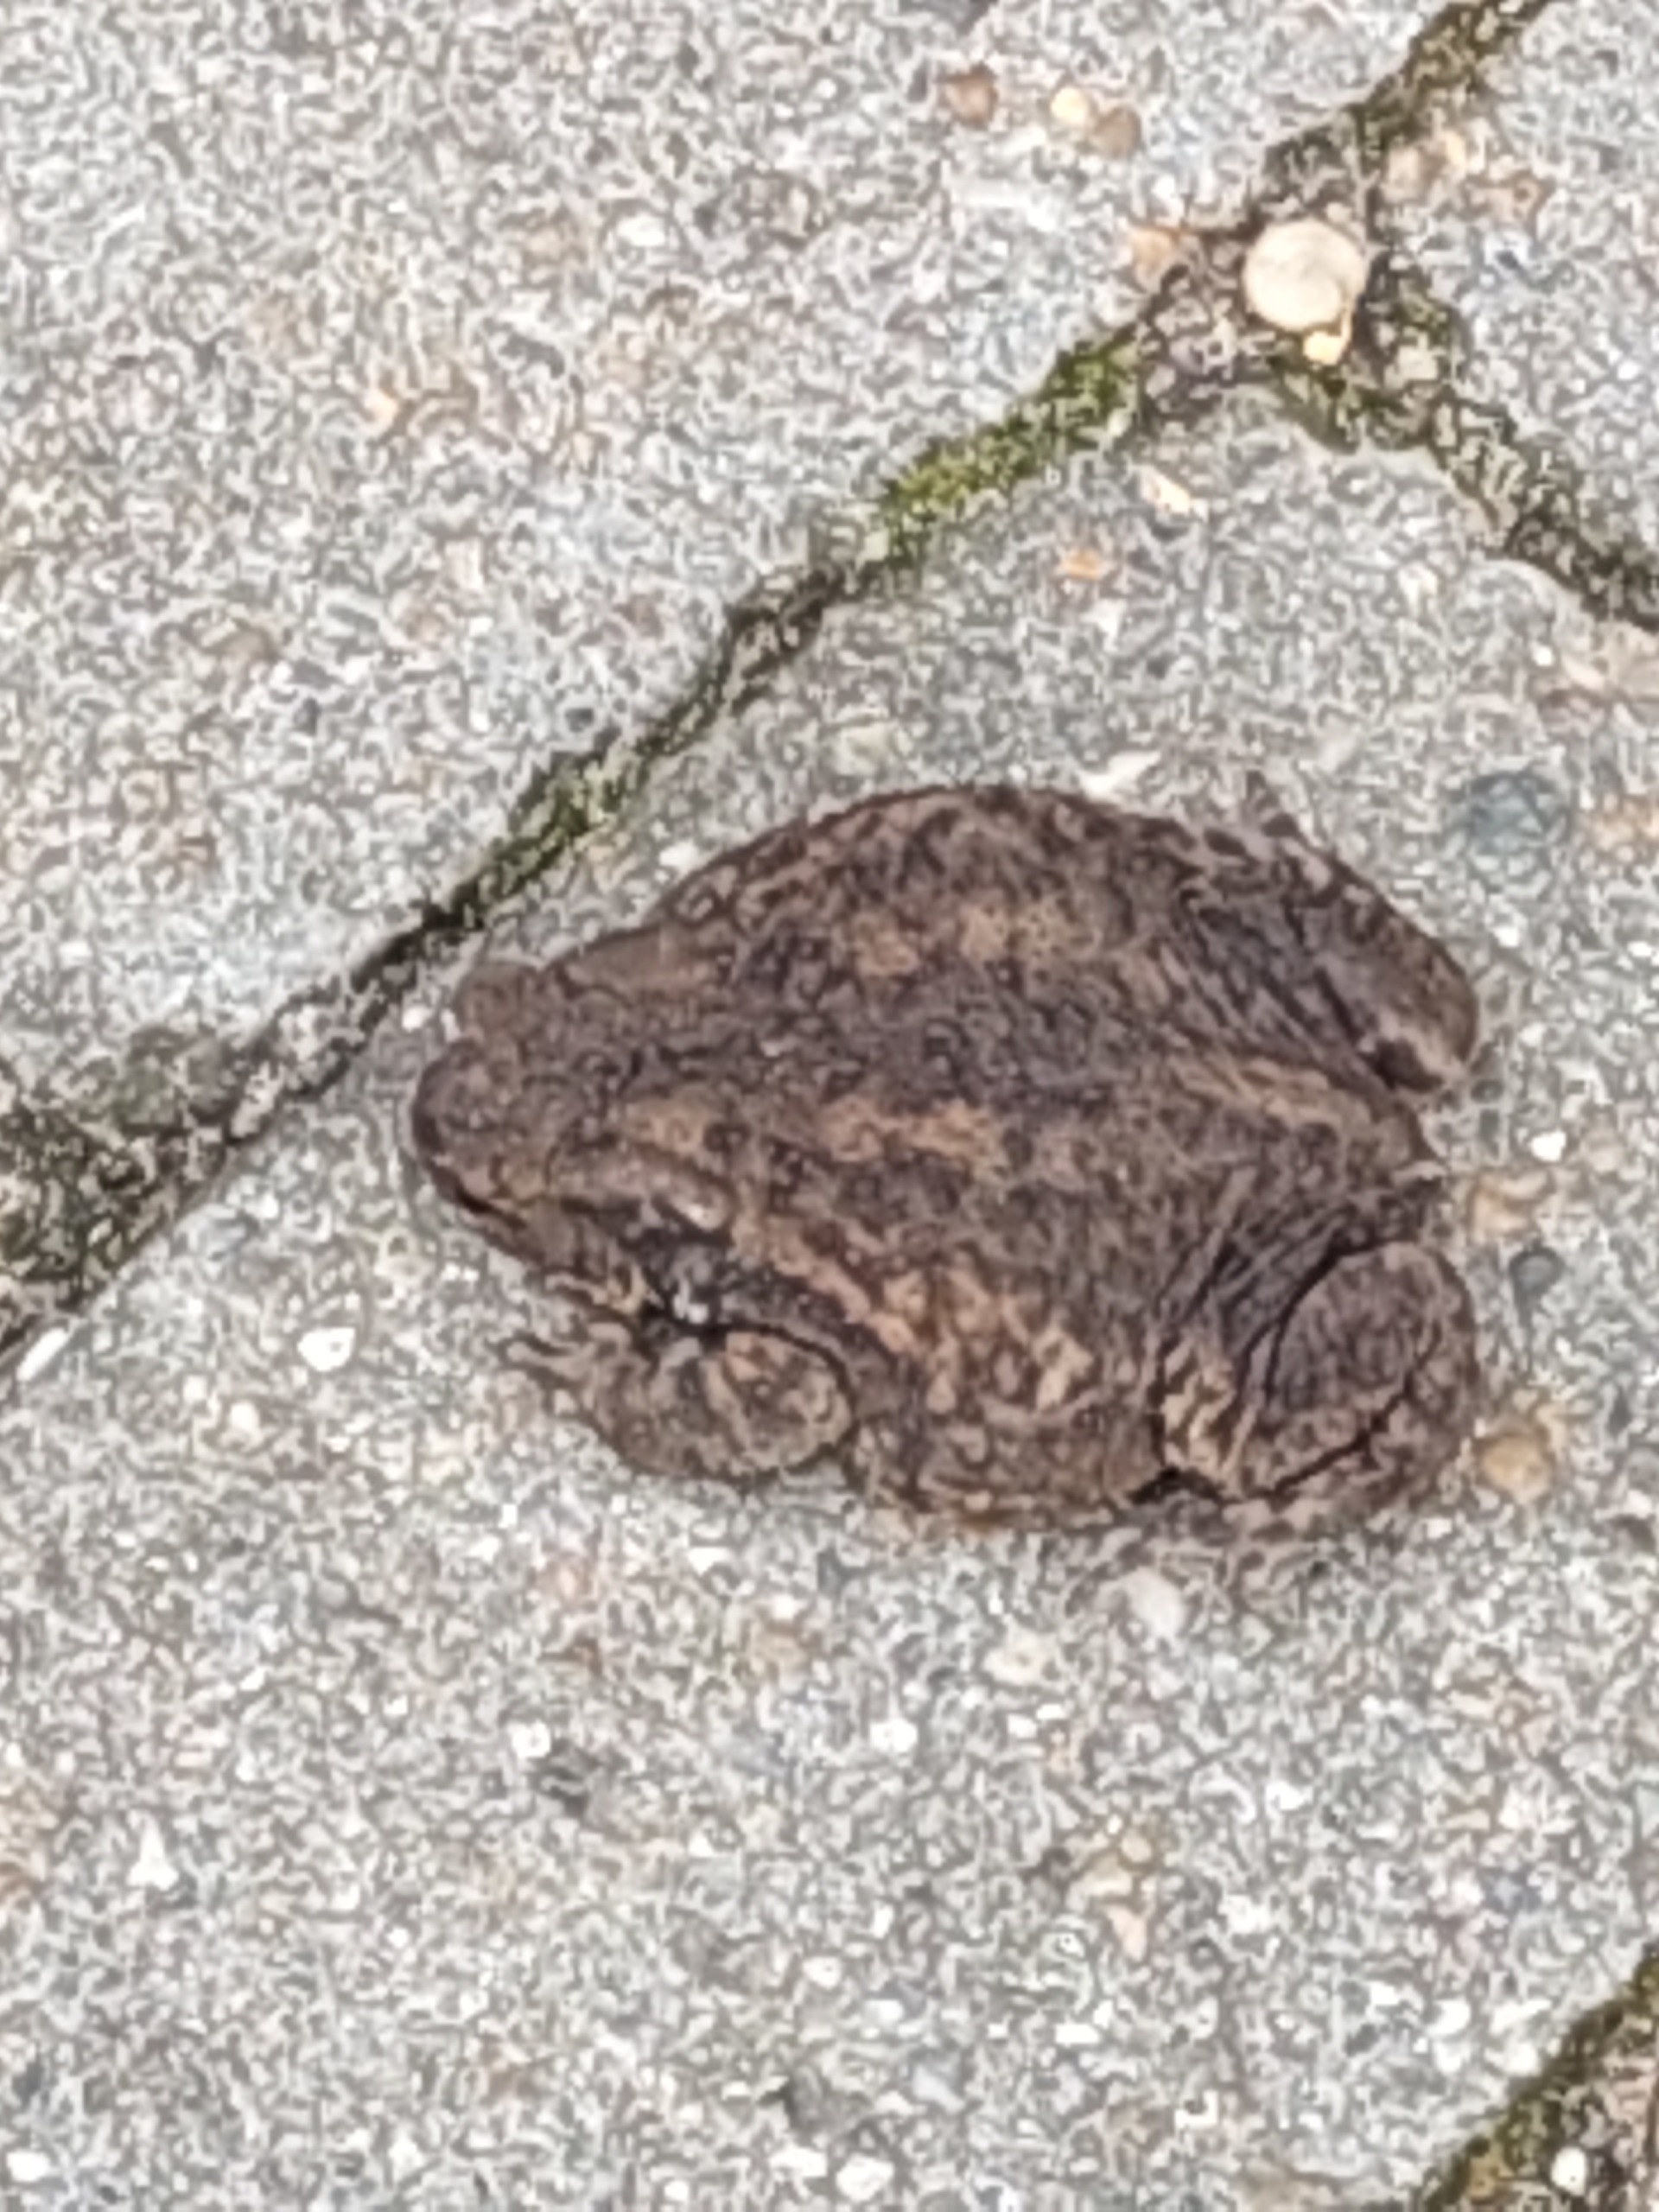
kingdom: Animalia
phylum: Chordata
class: Amphibia
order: Anura
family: Bufonidae
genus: Bufo
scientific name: Bufo bufo
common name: Skrubtudse
